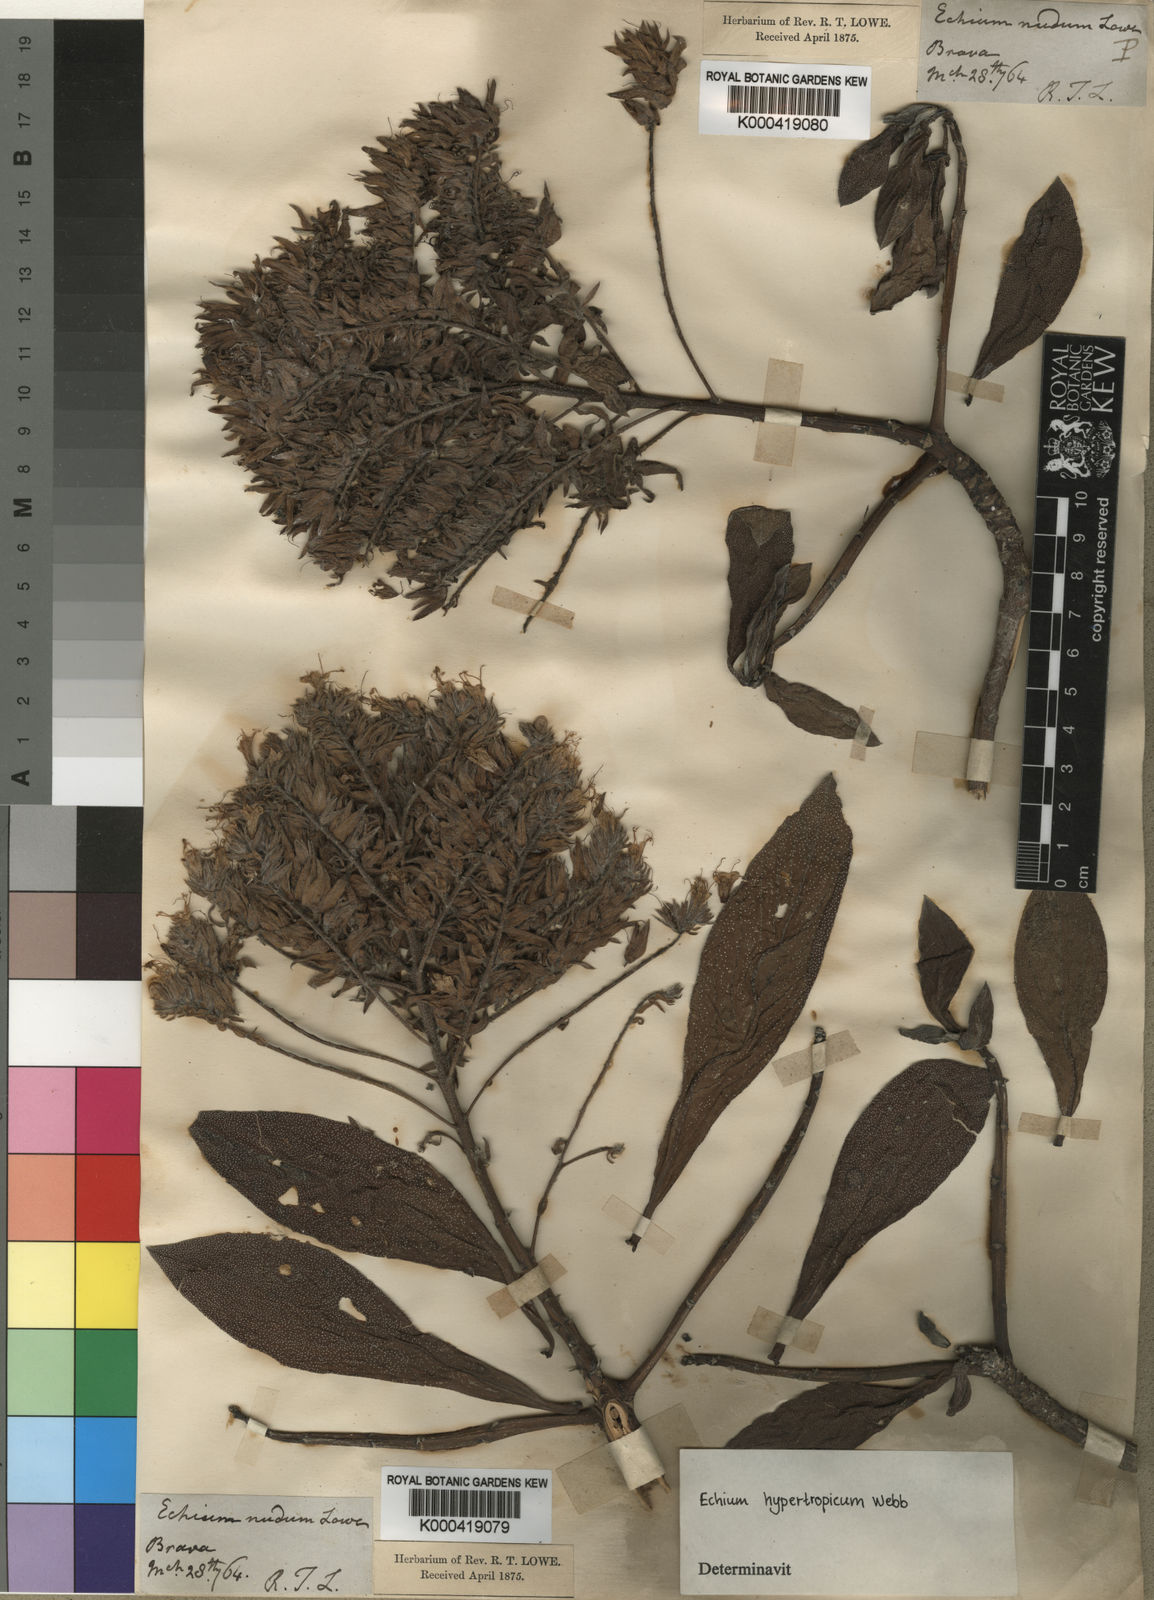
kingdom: Plantae
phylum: Tracheophyta
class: Magnoliopsida
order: Boraginales
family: Boraginaceae
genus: Echium
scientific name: Echium hypertropicum
